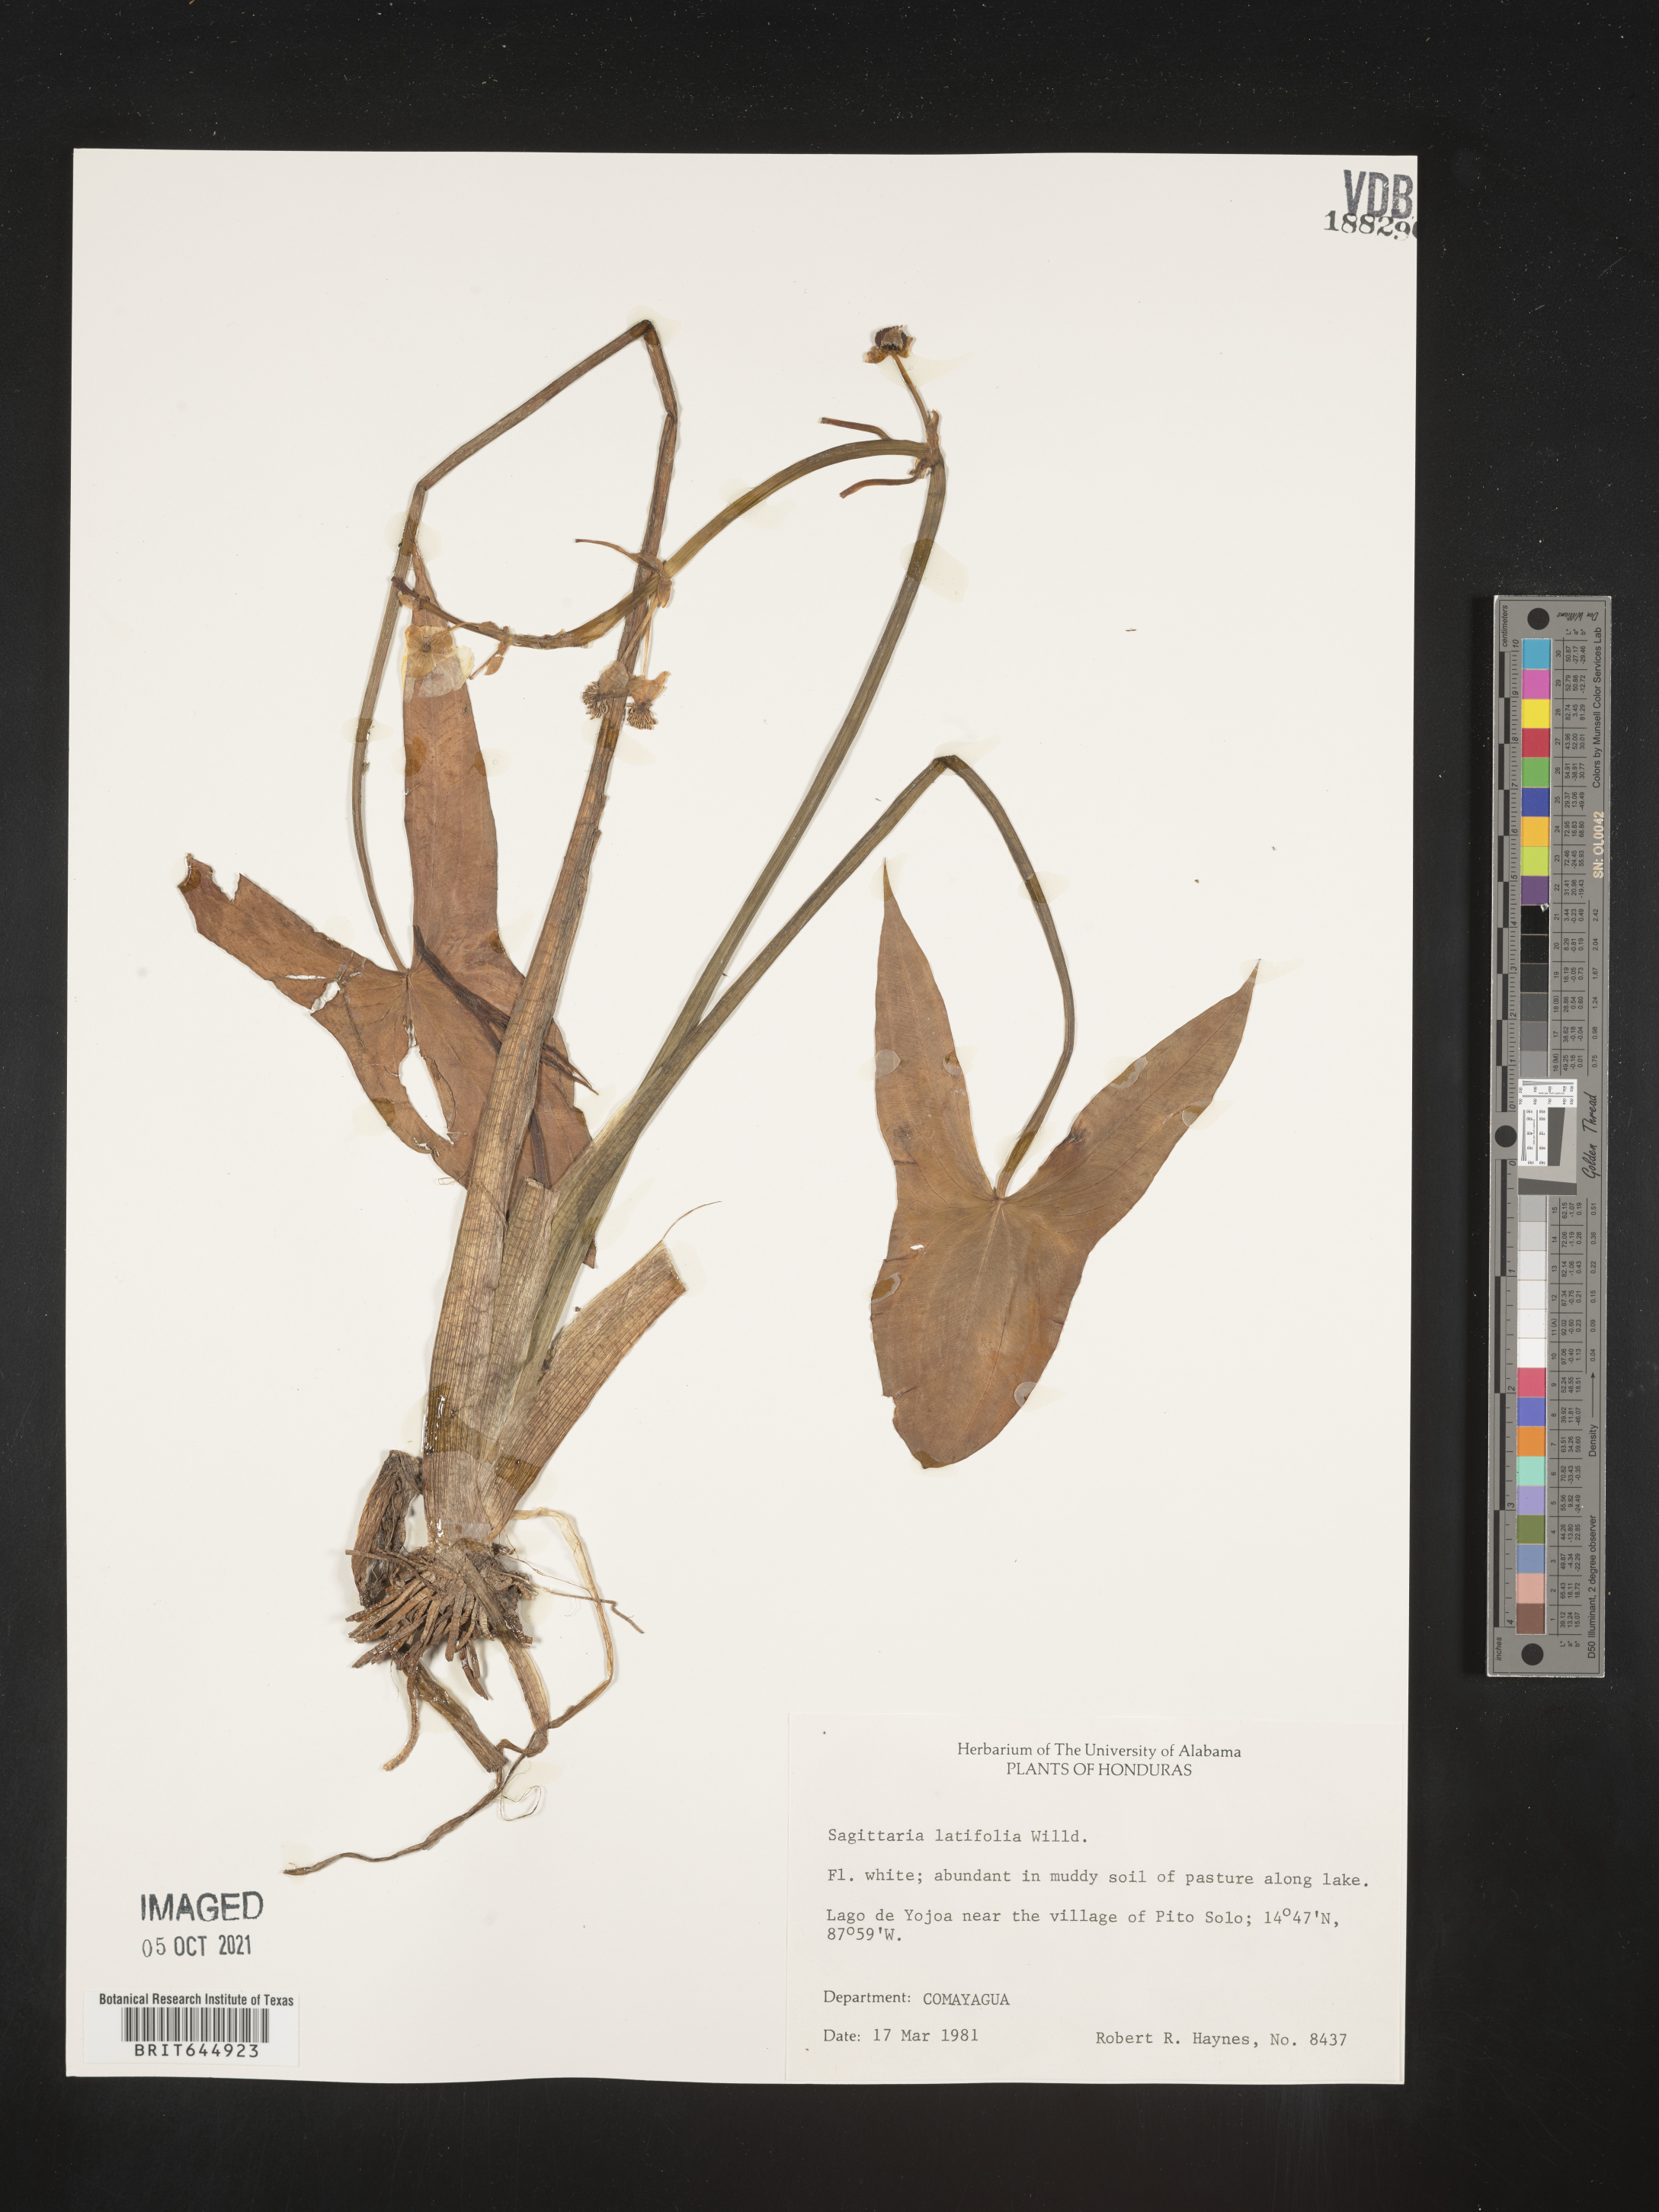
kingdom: Plantae
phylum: Tracheophyta
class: Liliopsida
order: Alismatales
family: Alismataceae
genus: Sagittaria
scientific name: Sagittaria latifolia
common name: Duck-potato
